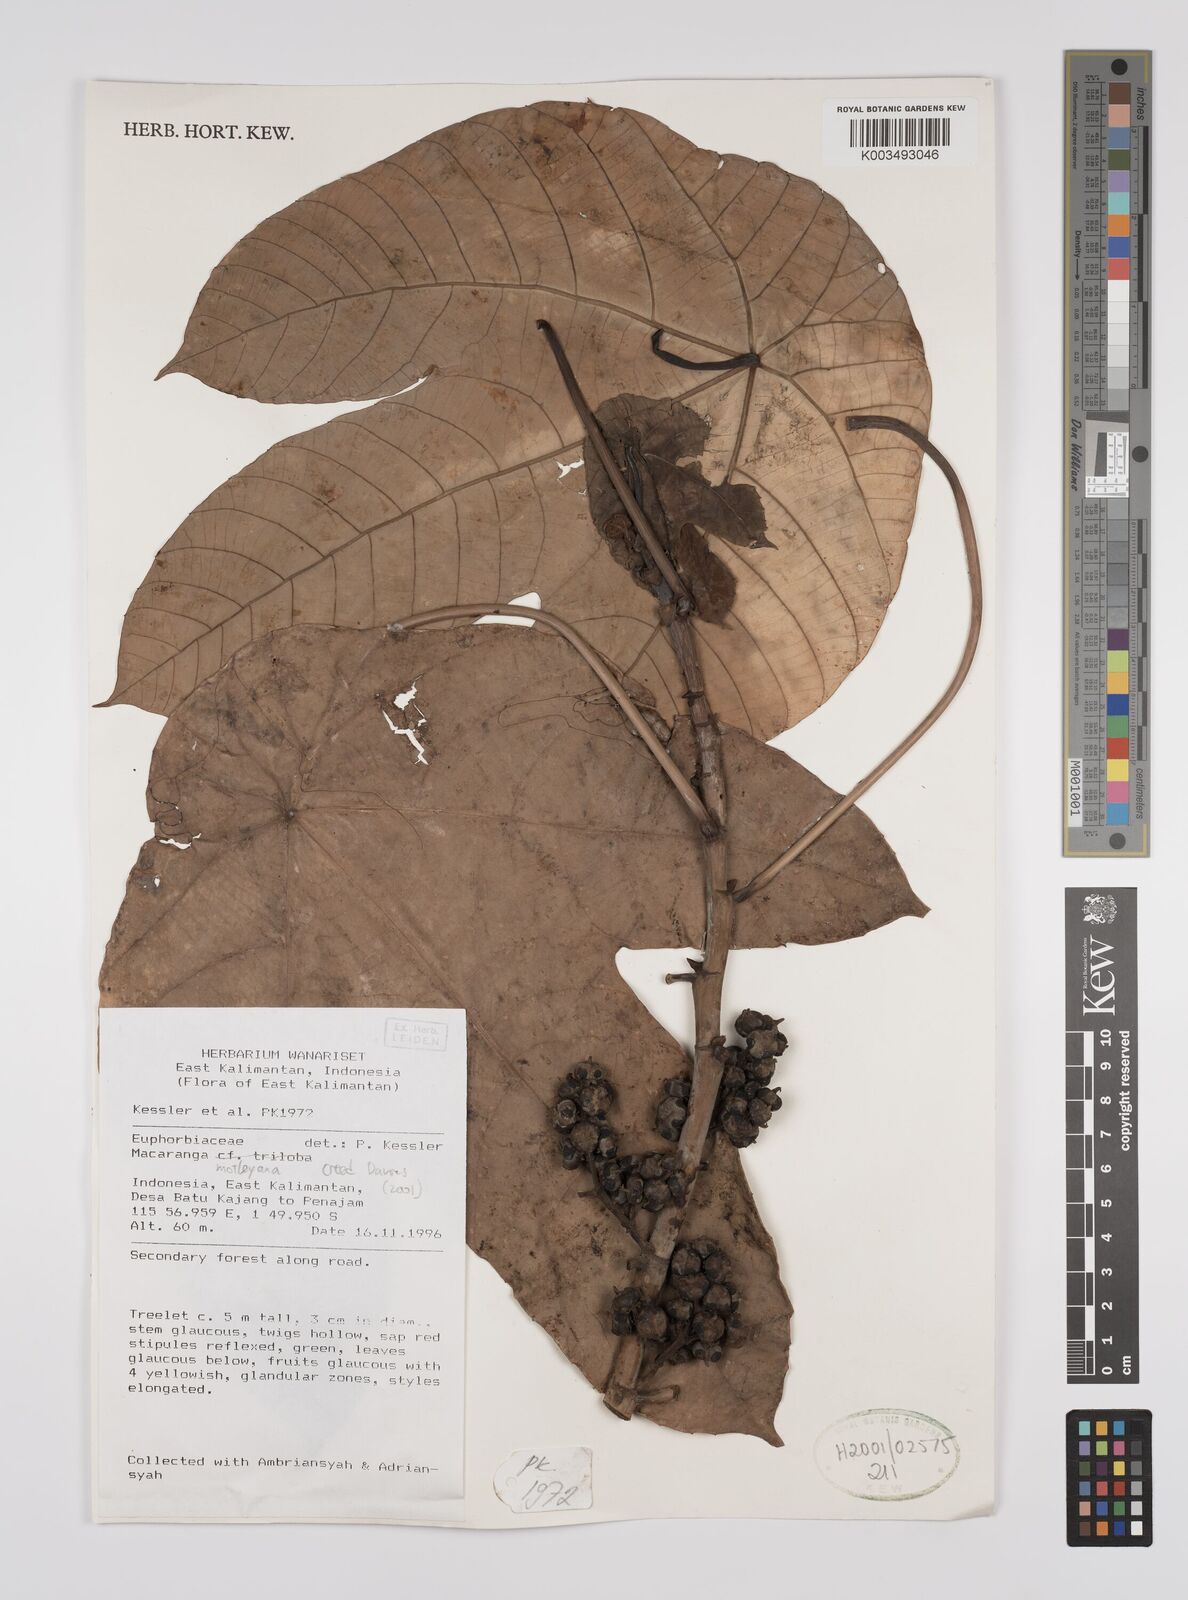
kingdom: Plantae
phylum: Tracheophyta
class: Magnoliopsida
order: Malpighiales
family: Euphorbiaceae
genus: Macaranga
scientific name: Macaranga motleyana
